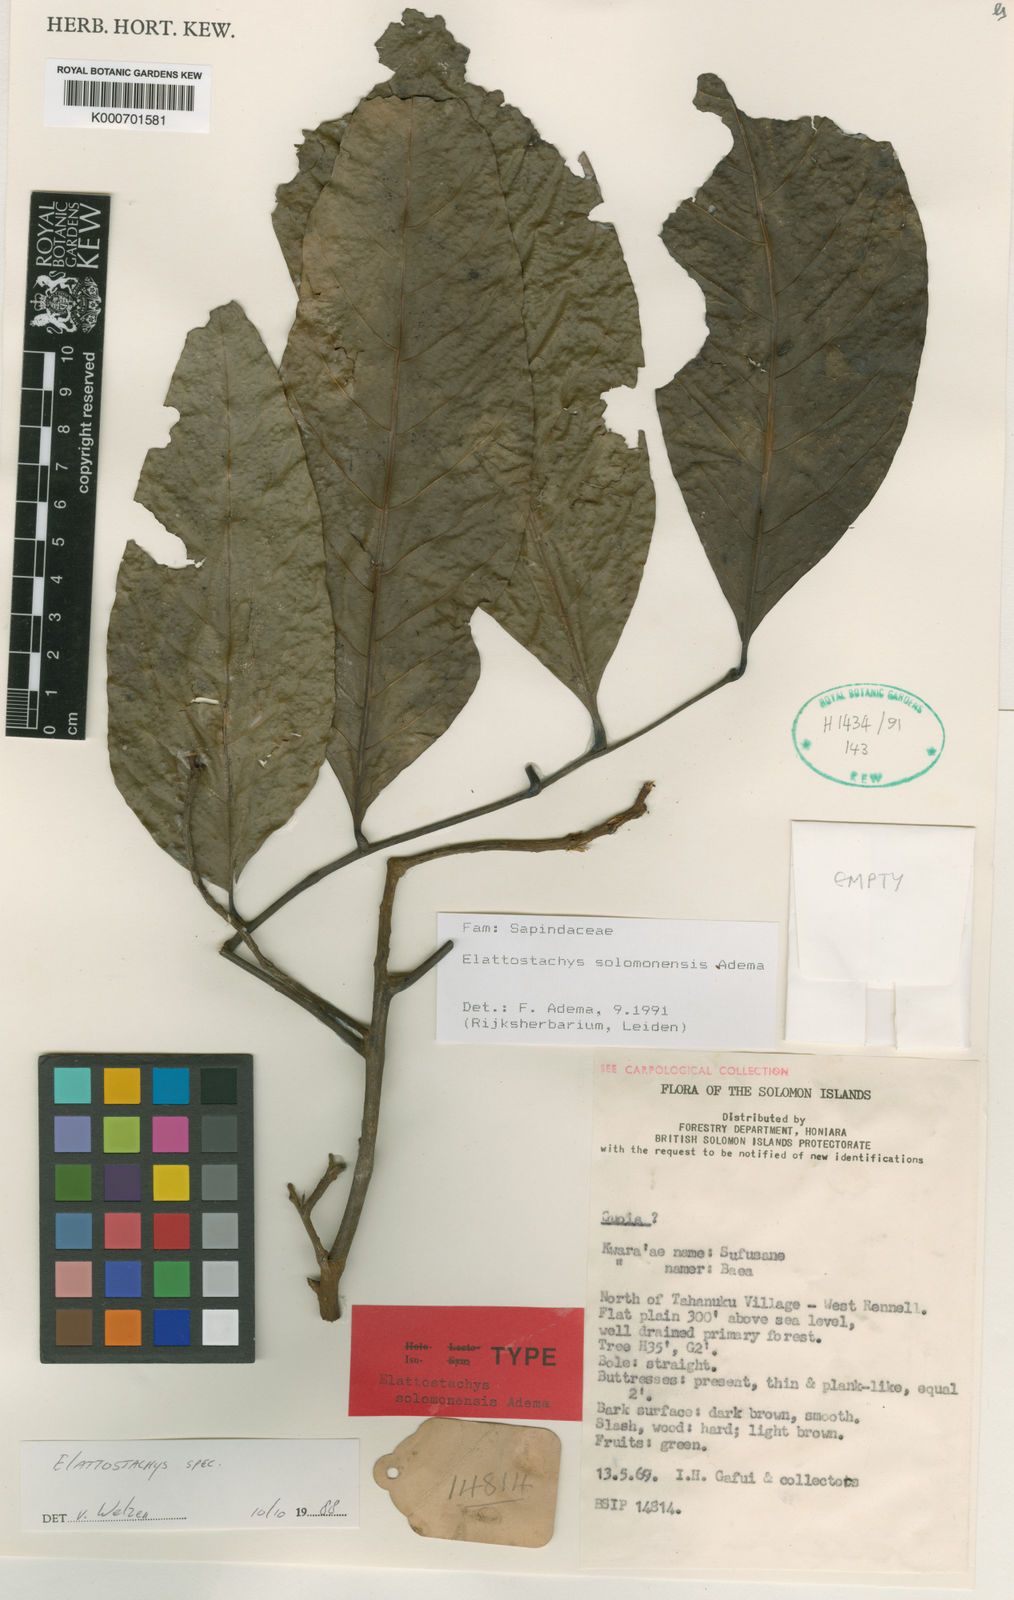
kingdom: Plantae
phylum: Tracheophyta
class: Magnoliopsida
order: Sapindales
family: Sapindaceae
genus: Elattostachys
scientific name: Elattostachys solomonensis
